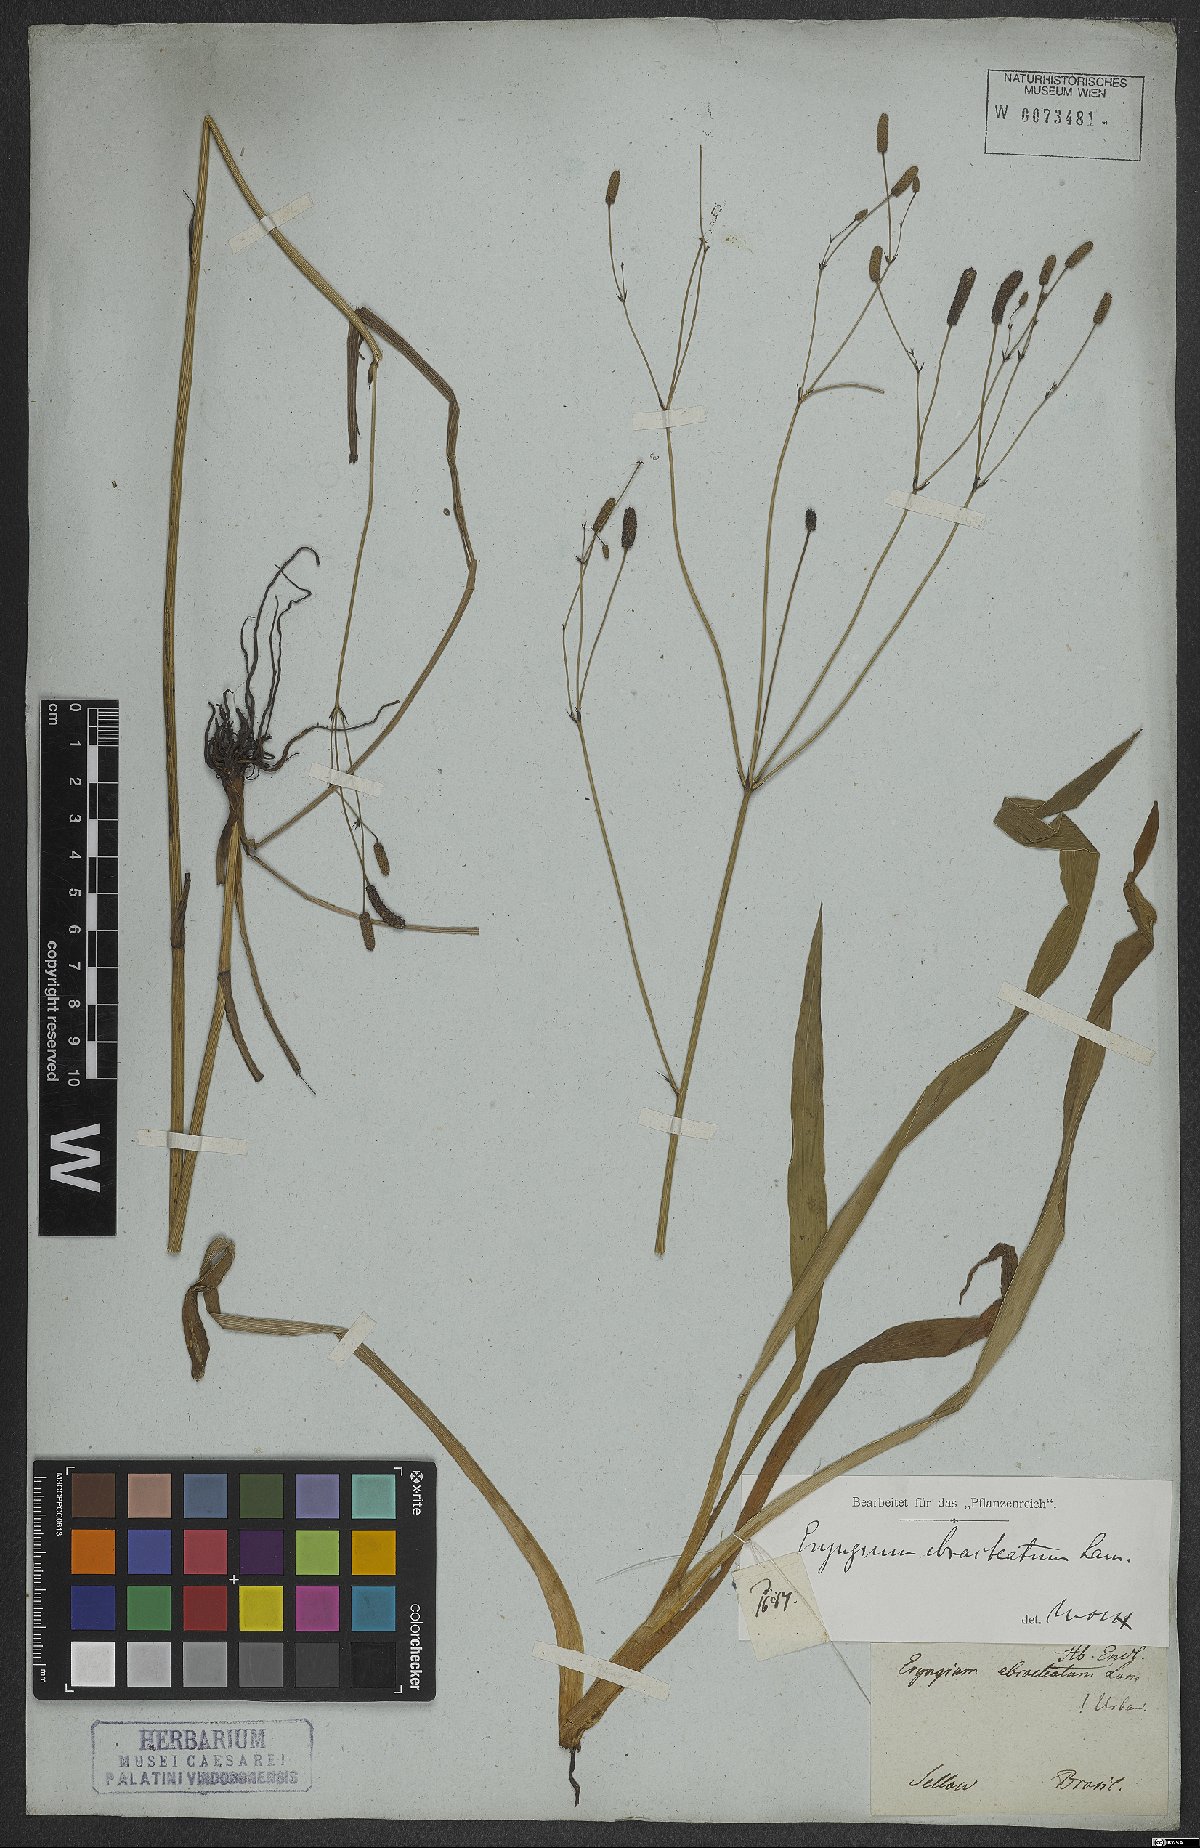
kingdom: Plantae
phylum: Tracheophyta
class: Magnoliopsida
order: Apiales
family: Apiaceae
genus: Eryngium
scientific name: Eryngium ebracteatum
